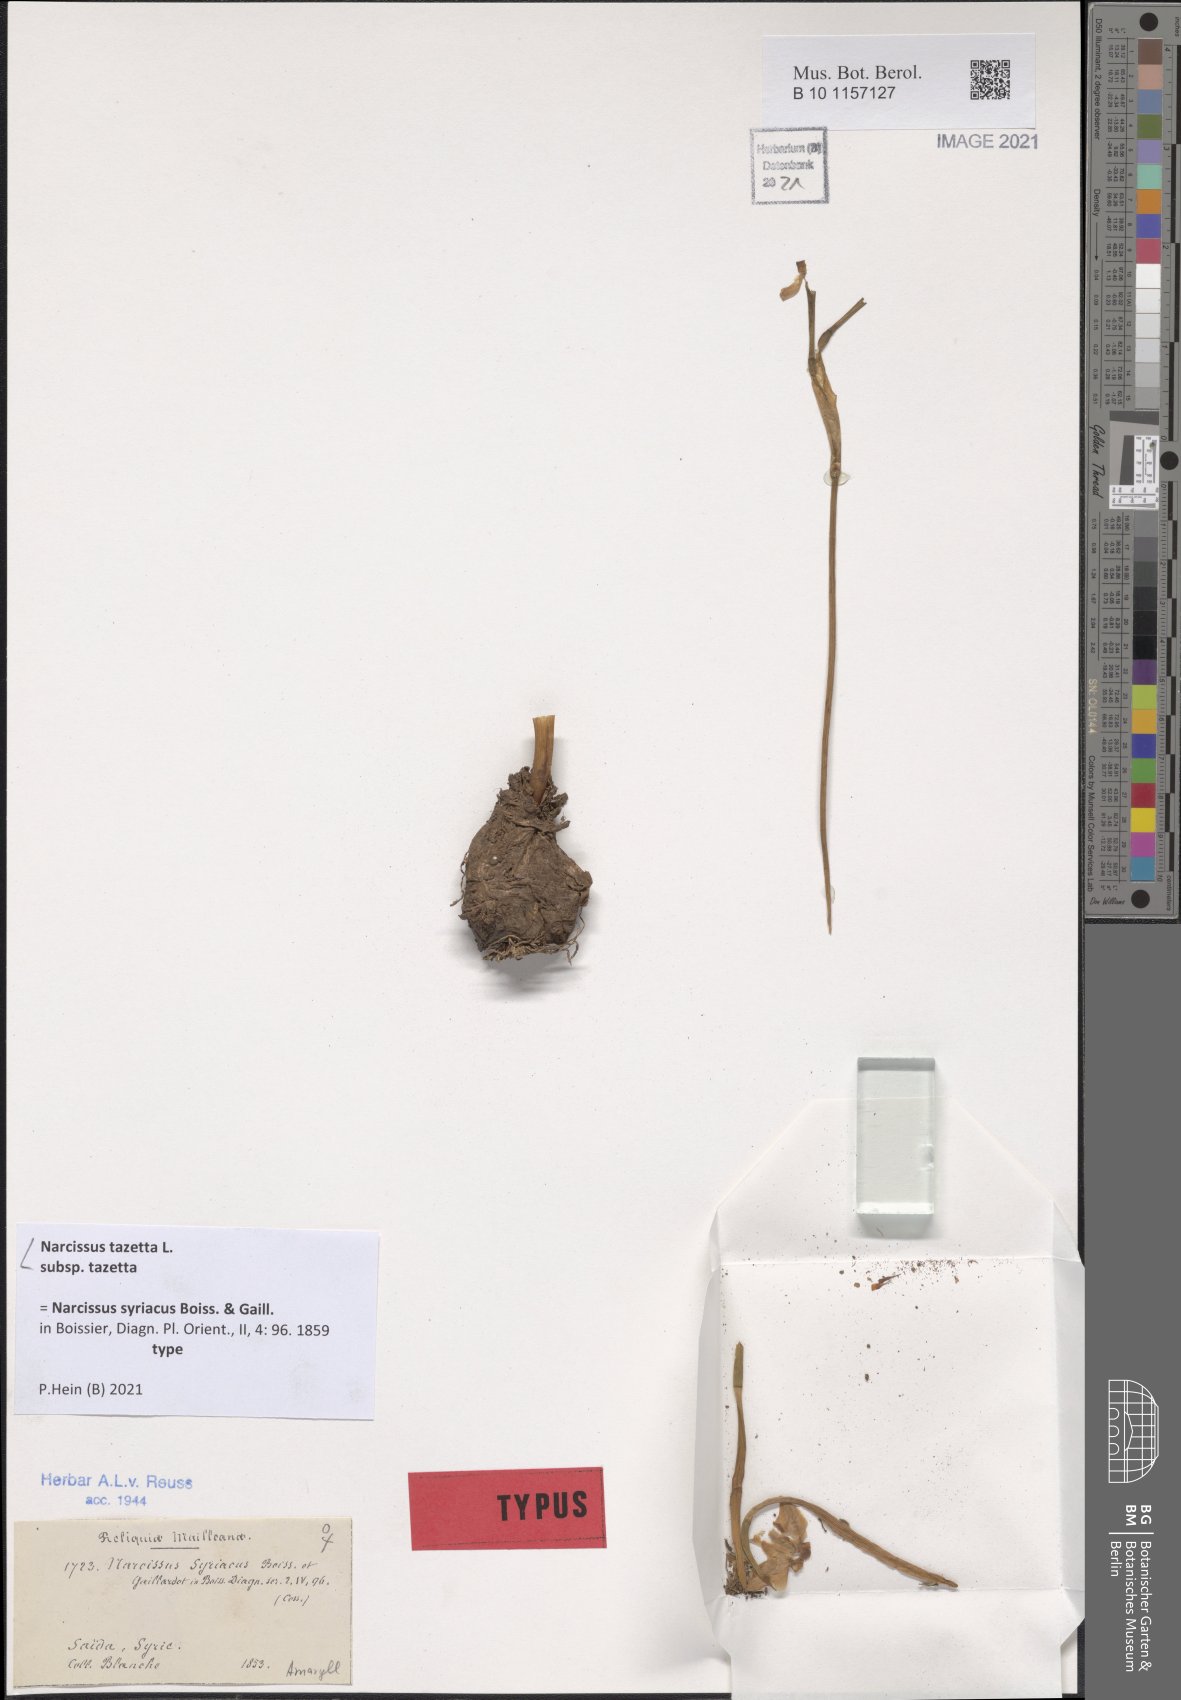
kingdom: Plantae
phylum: Tracheophyta
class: Liliopsida
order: Asparagales
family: Amaryllidaceae
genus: Narcissus
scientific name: Narcissus tazetta
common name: Bunch-flowered daffodil
